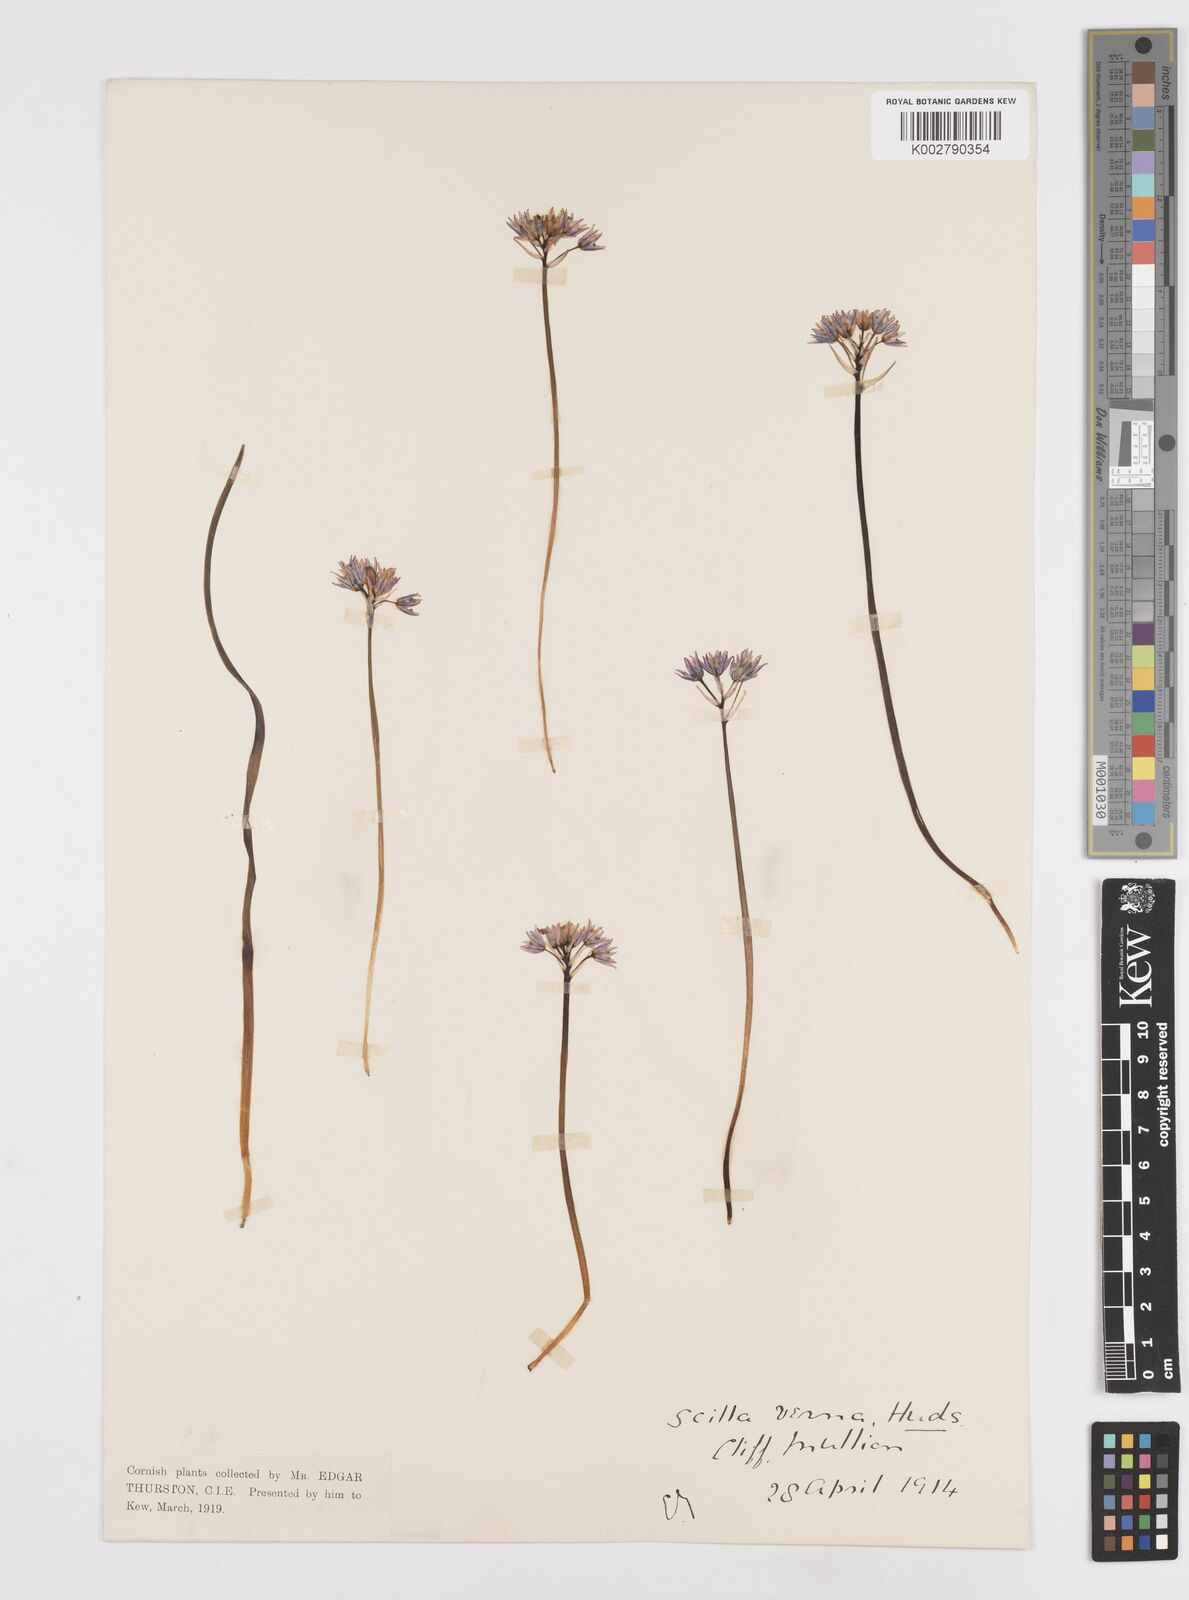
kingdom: Plantae
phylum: Tracheophyta
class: Liliopsida
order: Asparagales
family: Asparagaceae
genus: Scilla
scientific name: Scilla verna
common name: Spring squill
